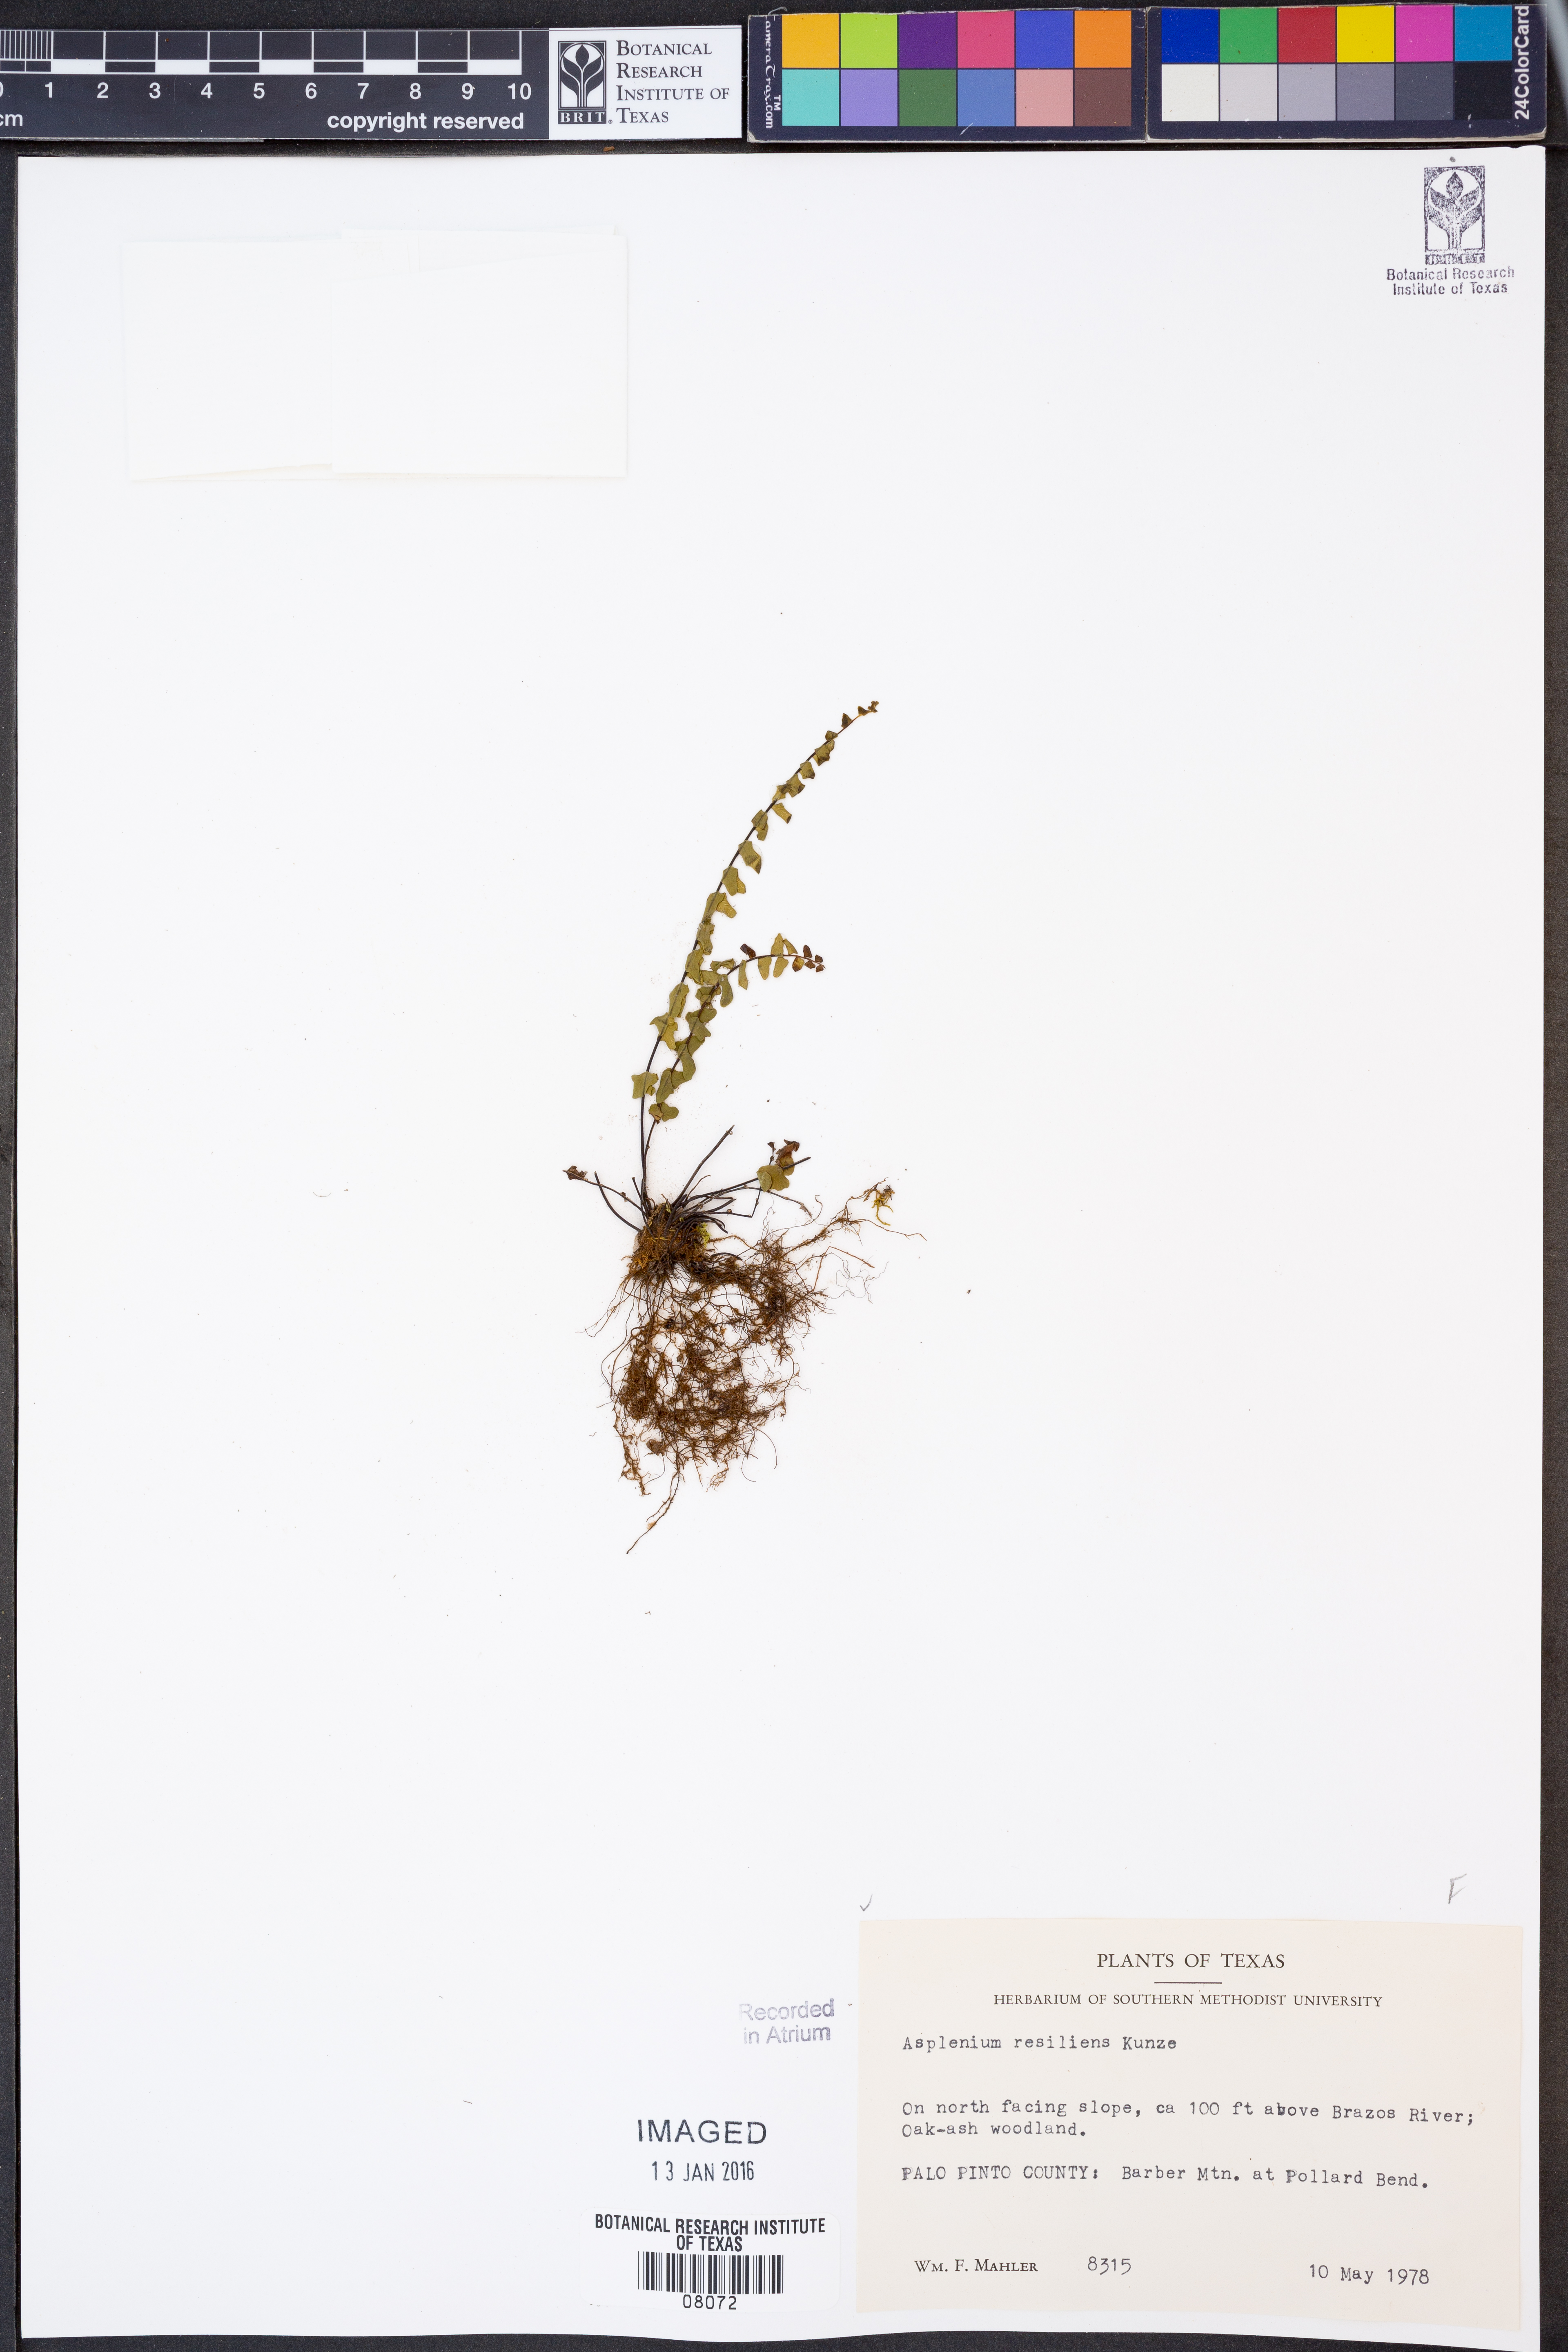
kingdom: Plantae
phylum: Tracheophyta
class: Polypodiopsida
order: Polypodiales
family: Aspleniaceae
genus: Asplenium
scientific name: Asplenium resiliens
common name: Blackstem spleenwort
